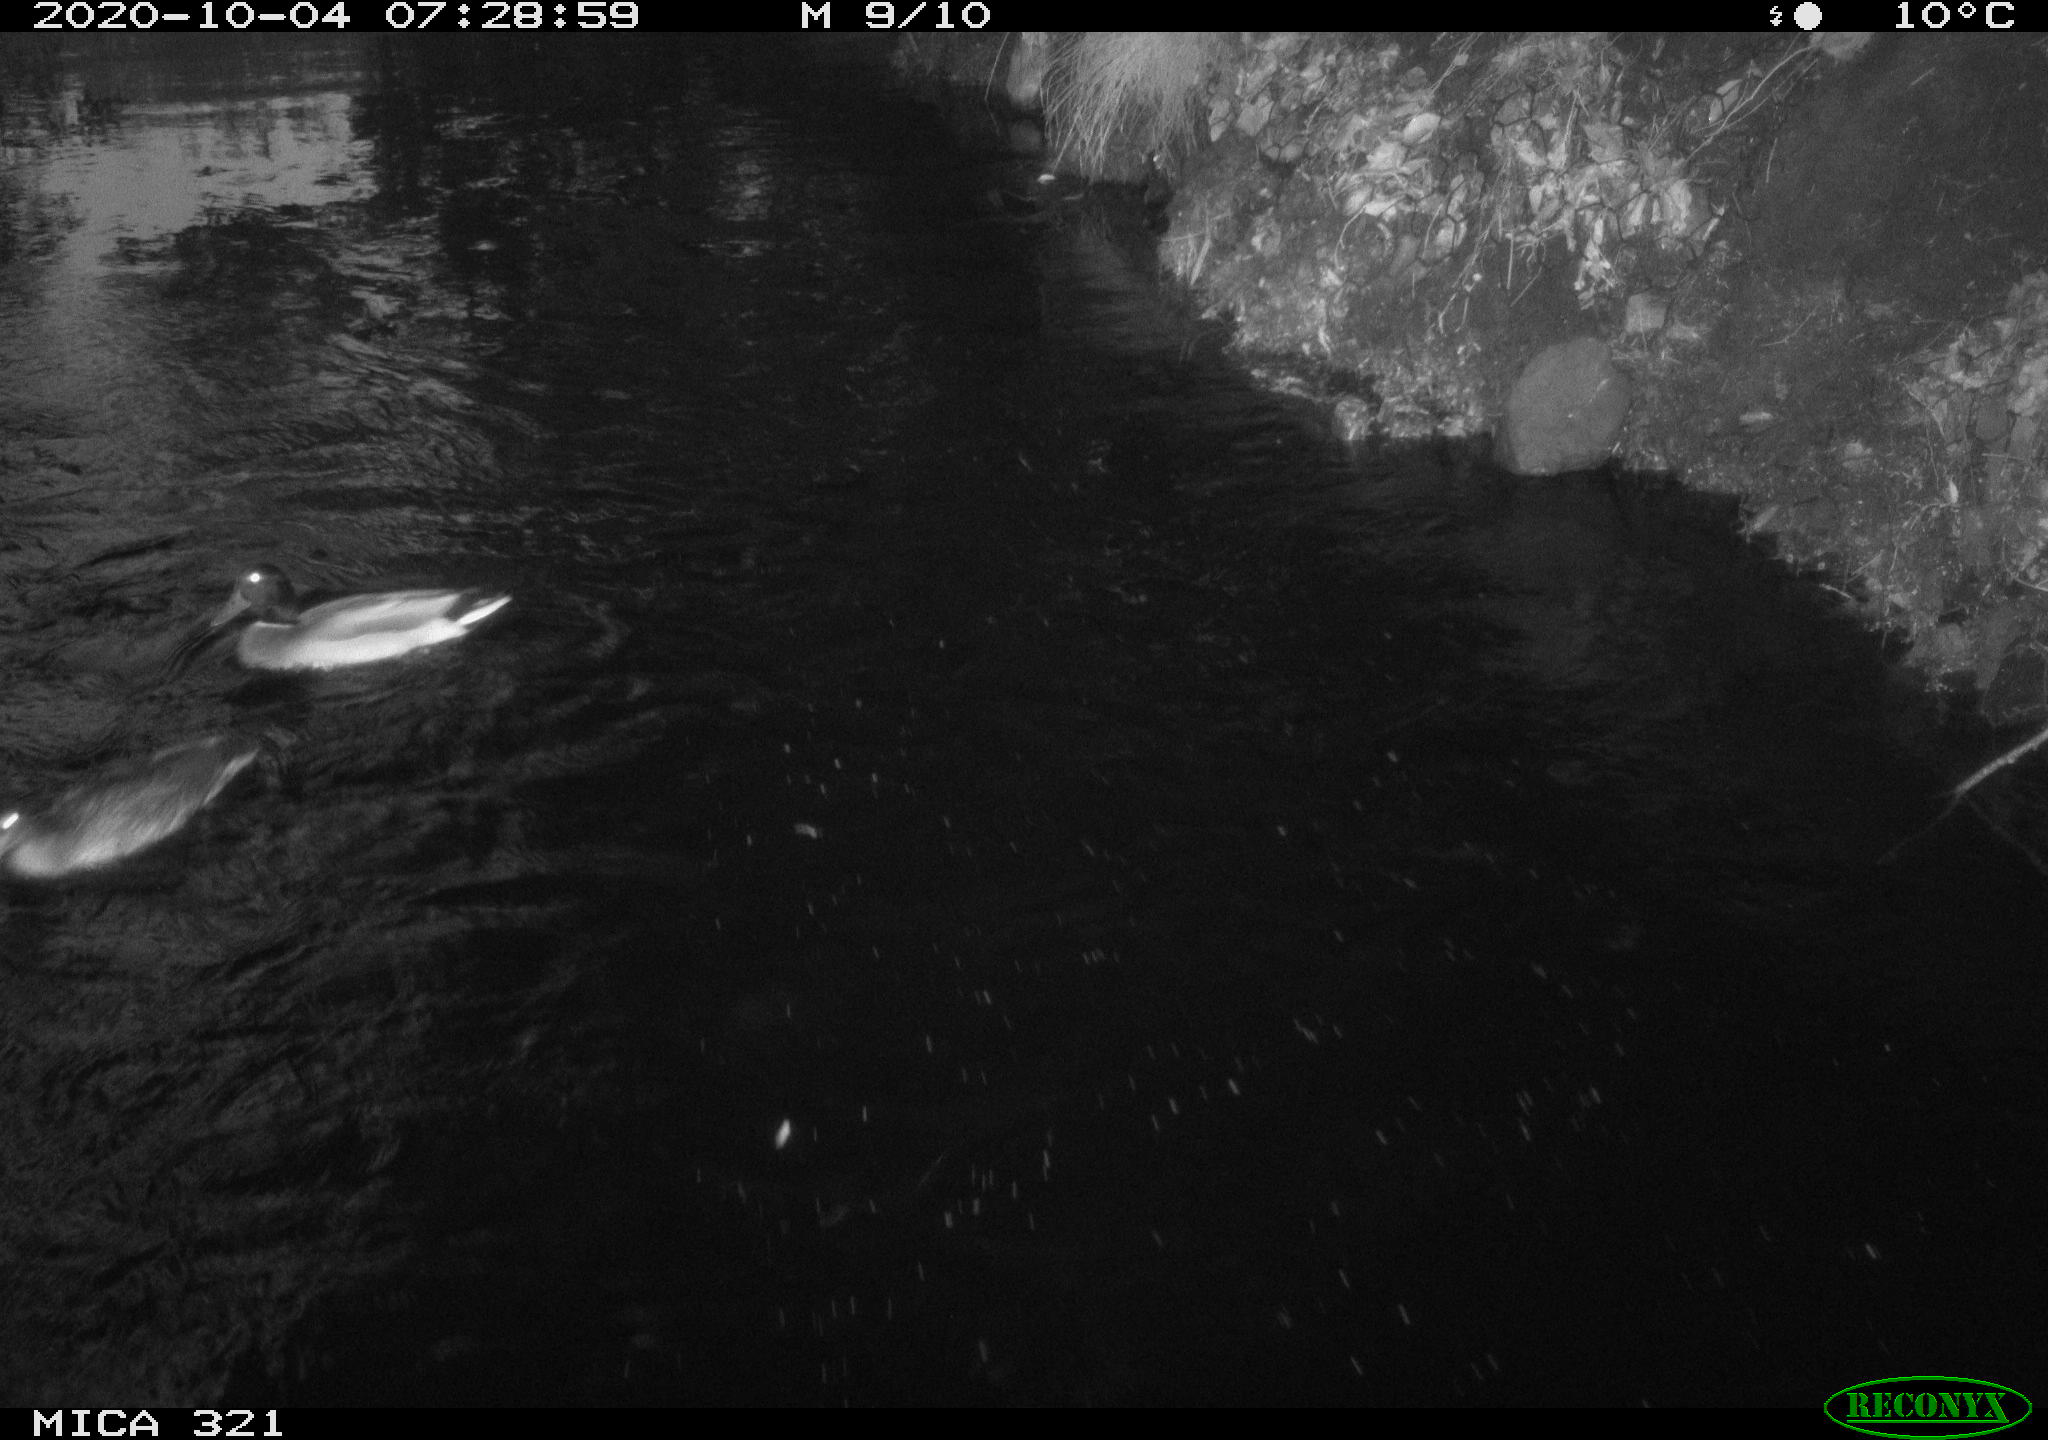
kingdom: Animalia
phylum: Chordata
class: Aves
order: Anseriformes
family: Anatidae
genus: Anas
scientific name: Anas platyrhynchos
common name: Mallard
